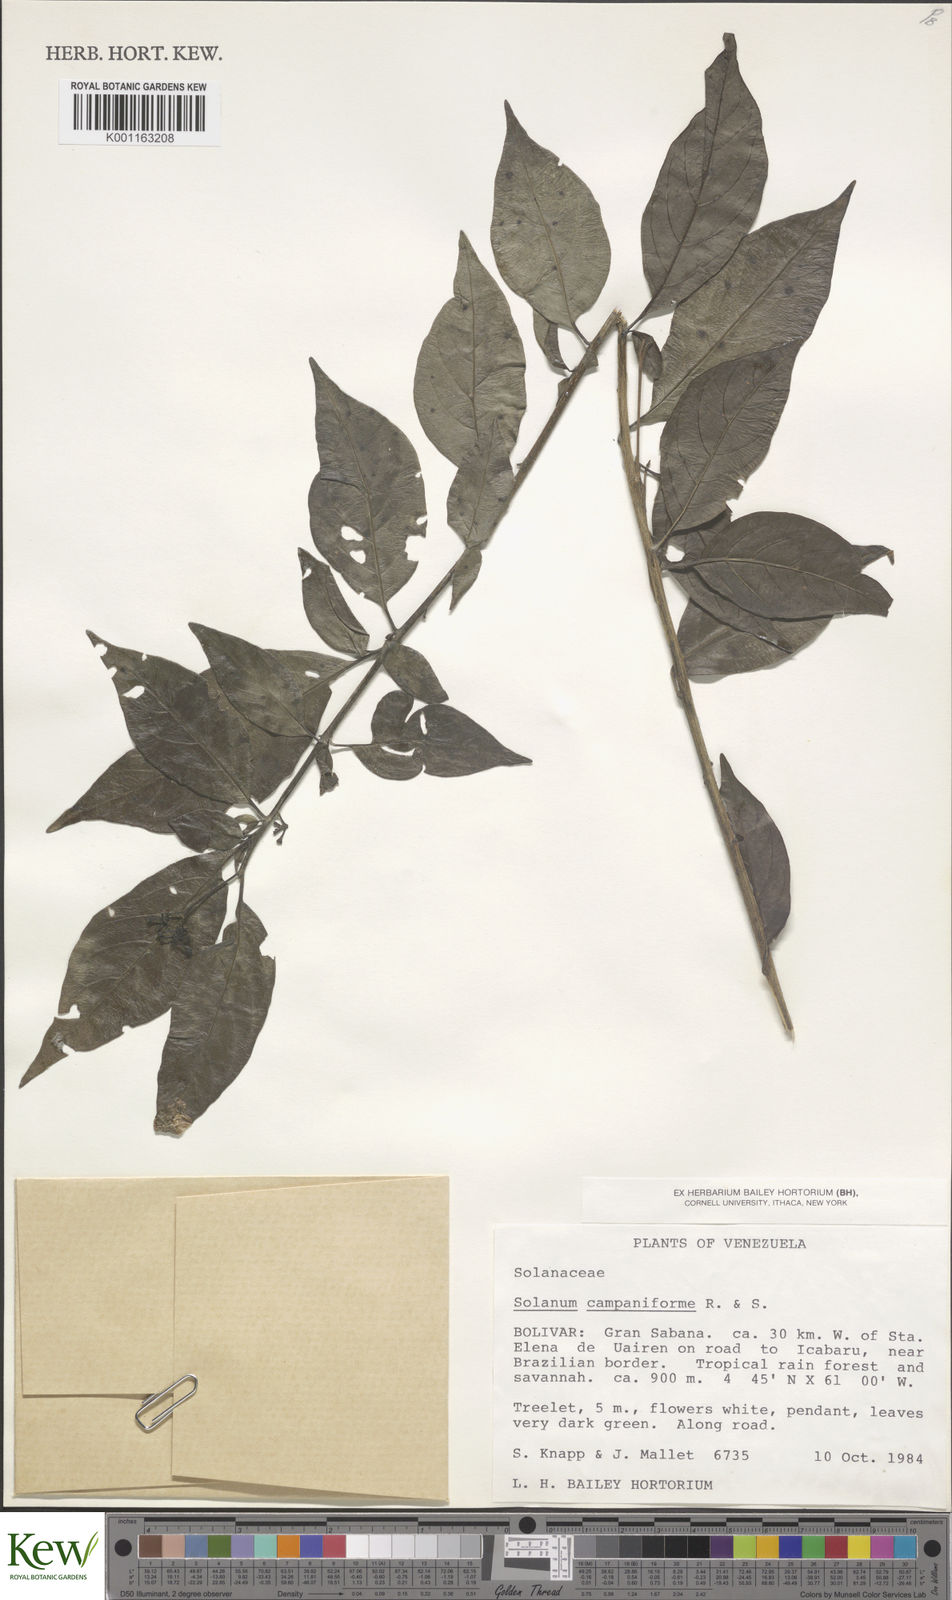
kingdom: Plantae
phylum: Tracheophyta
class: Magnoliopsida
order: Solanales
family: Solanaceae
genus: Solanum
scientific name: Solanum campaniforme
